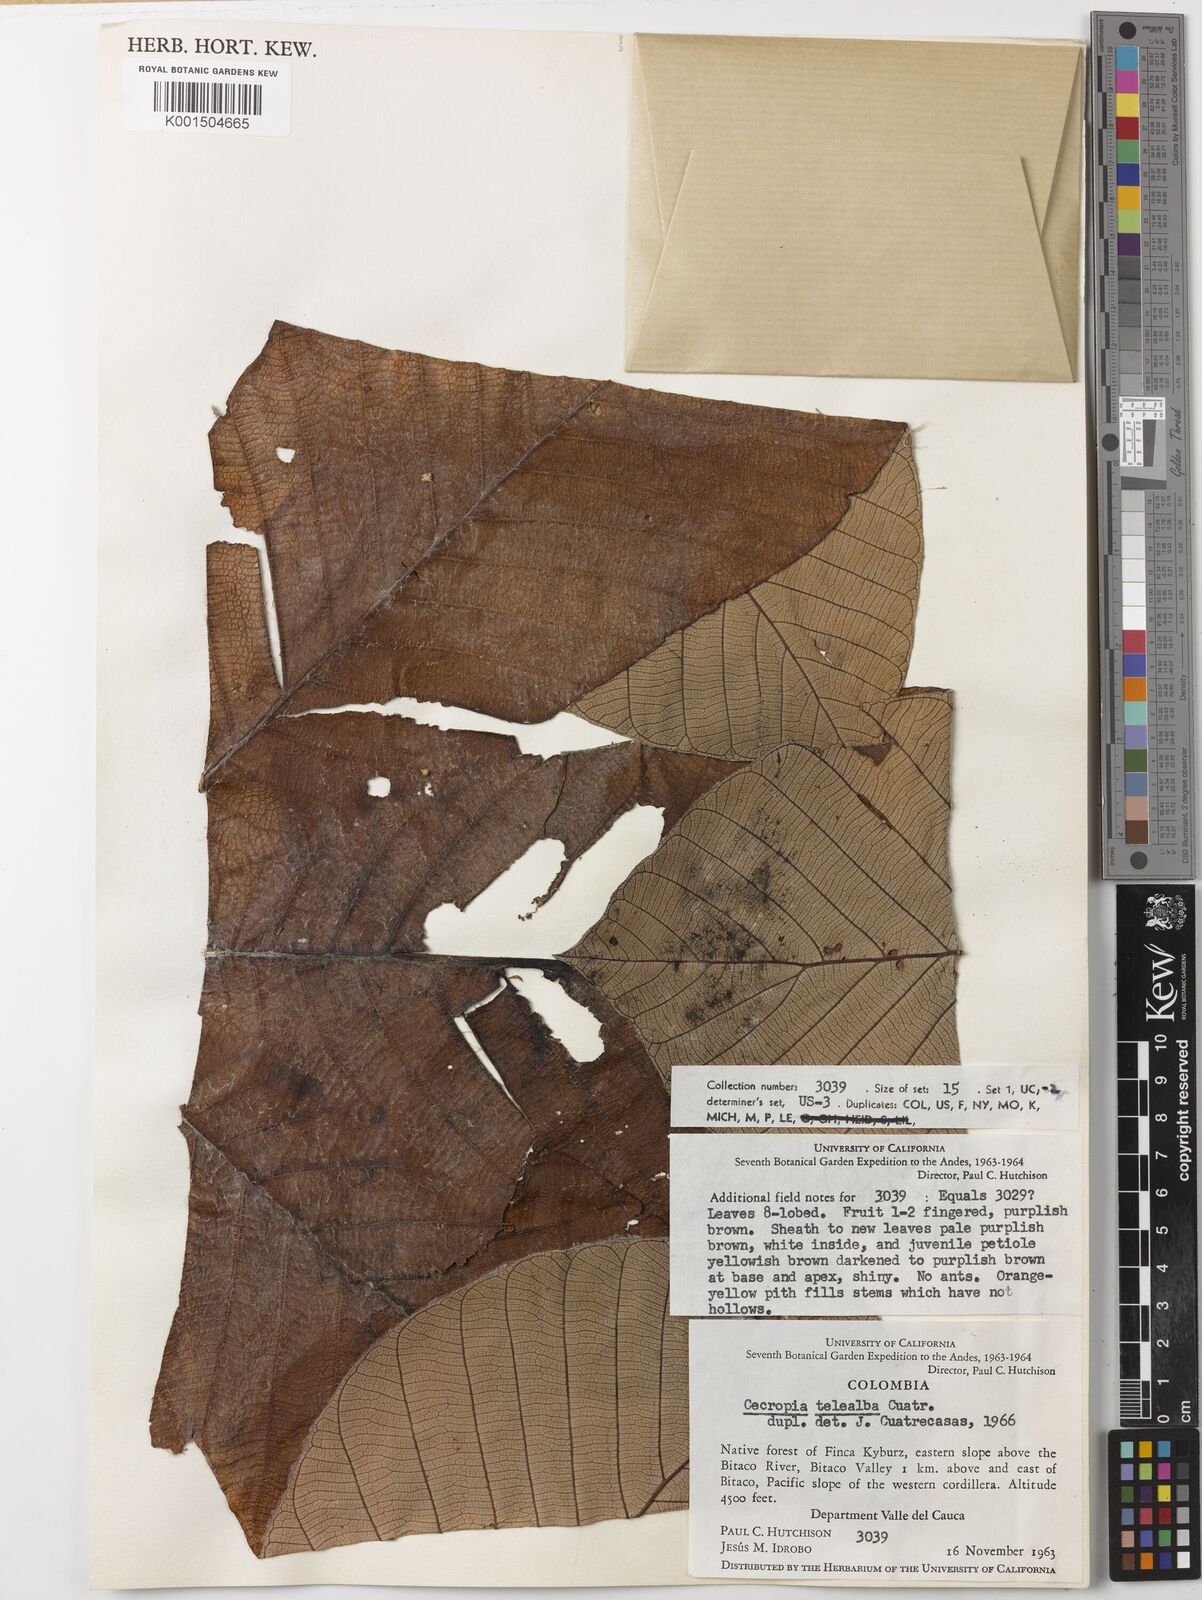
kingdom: Plantae
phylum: Tracheophyta
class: Magnoliopsida
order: Rosales
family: Urticaceae
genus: Cecropia
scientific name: Cecropia telealba
